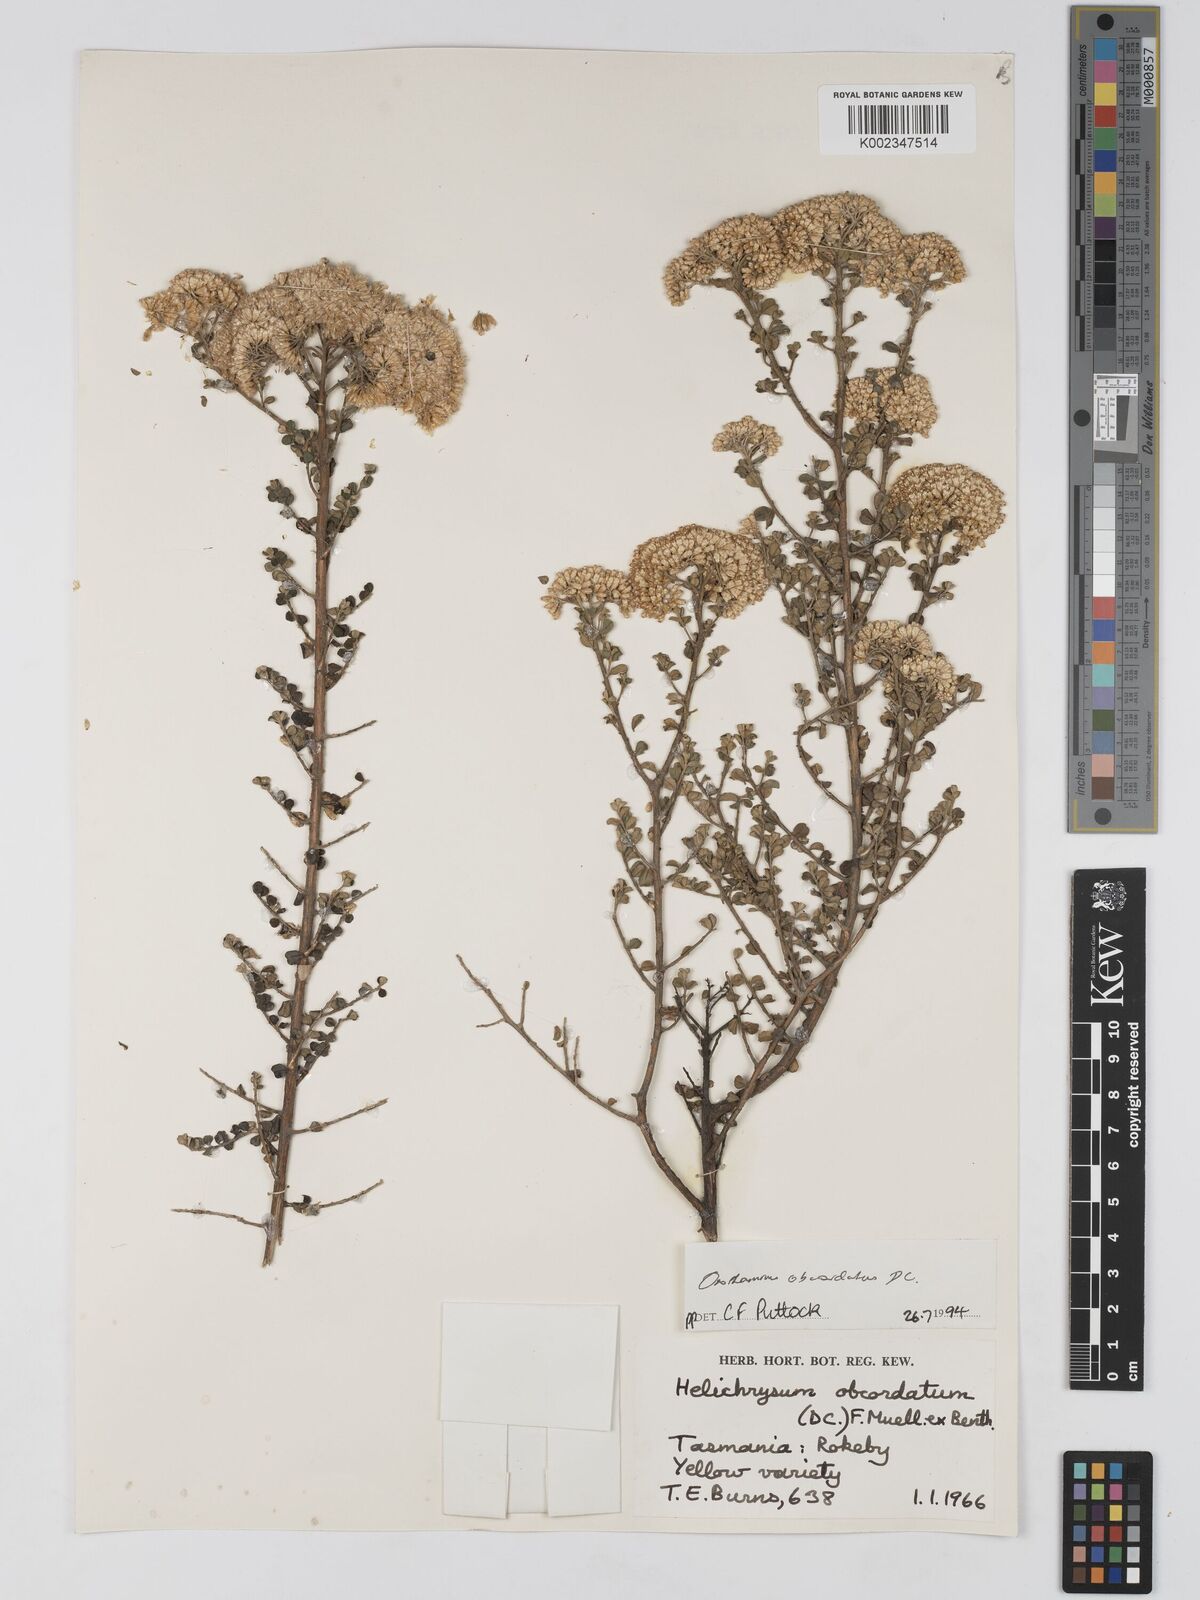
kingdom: Plantae
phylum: Tracheophyta
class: Magnoliopsida
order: Asterales
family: Asteraceae
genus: Ozothamnus
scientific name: Ozothamnus
